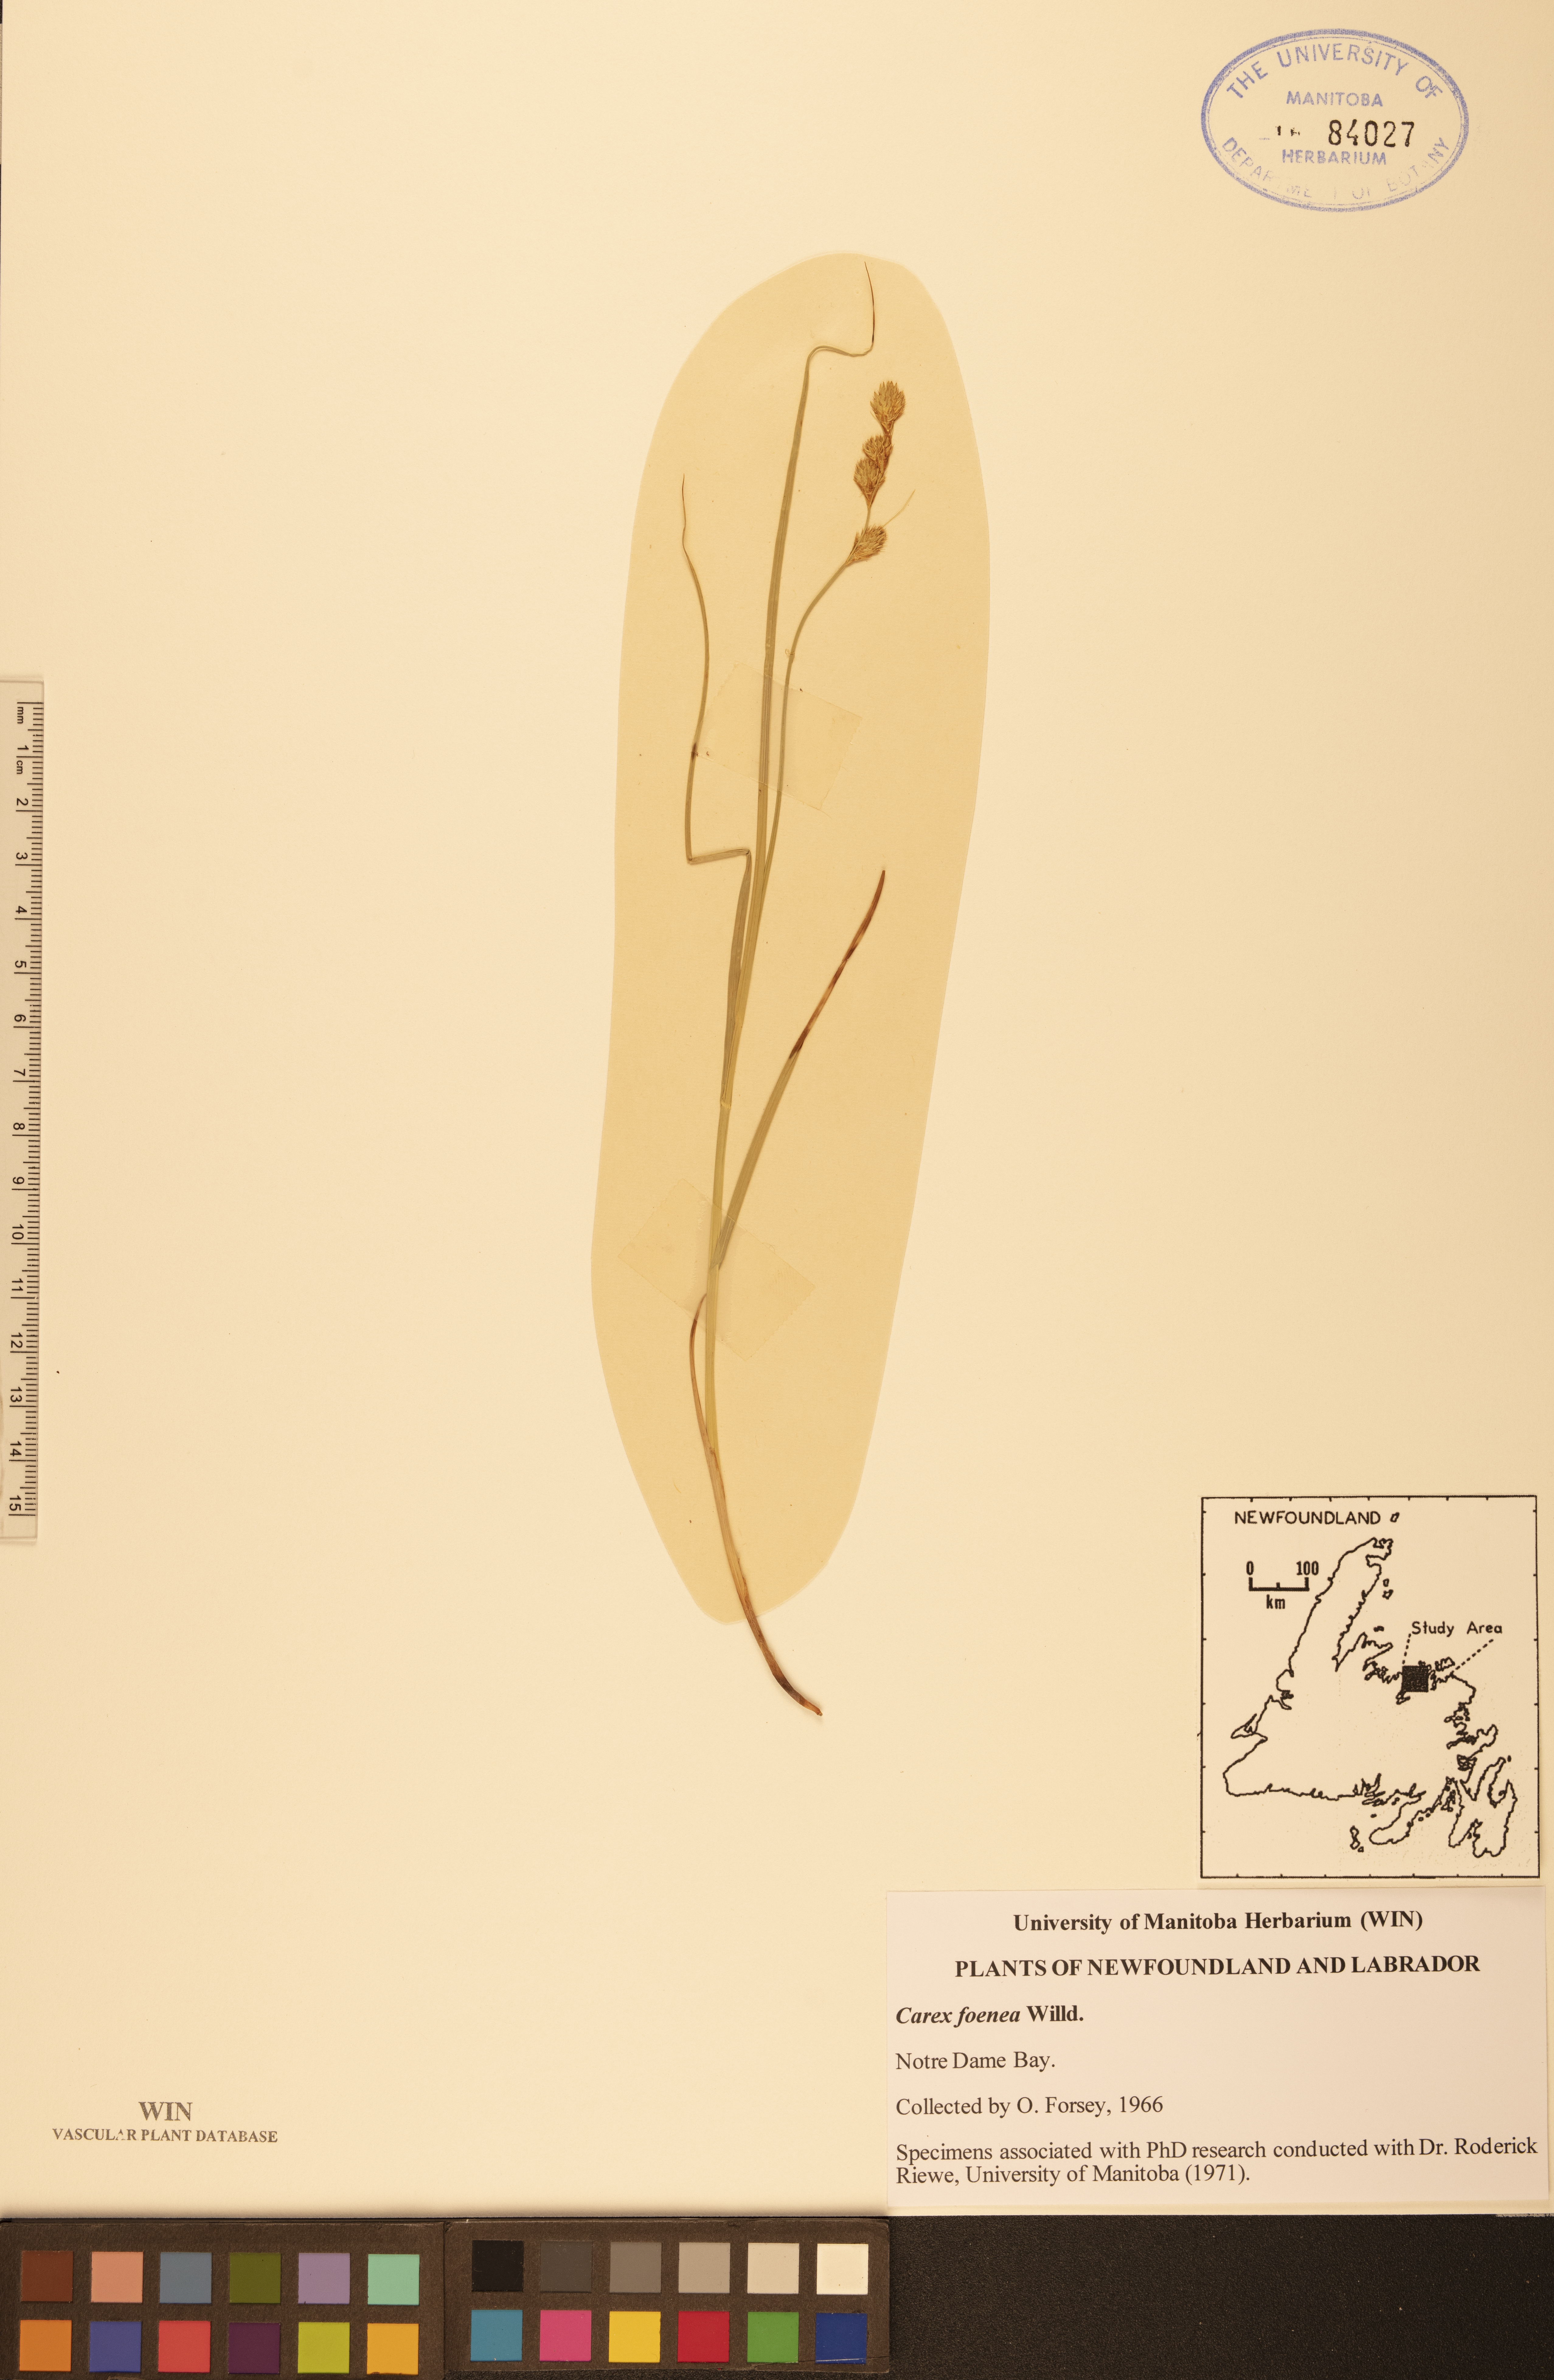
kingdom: Plantae
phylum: Tracheophyta
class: Liliopsida
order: Poales
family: Cyperaceae
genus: Carex
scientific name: Carex foenea
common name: Bronze sedge
